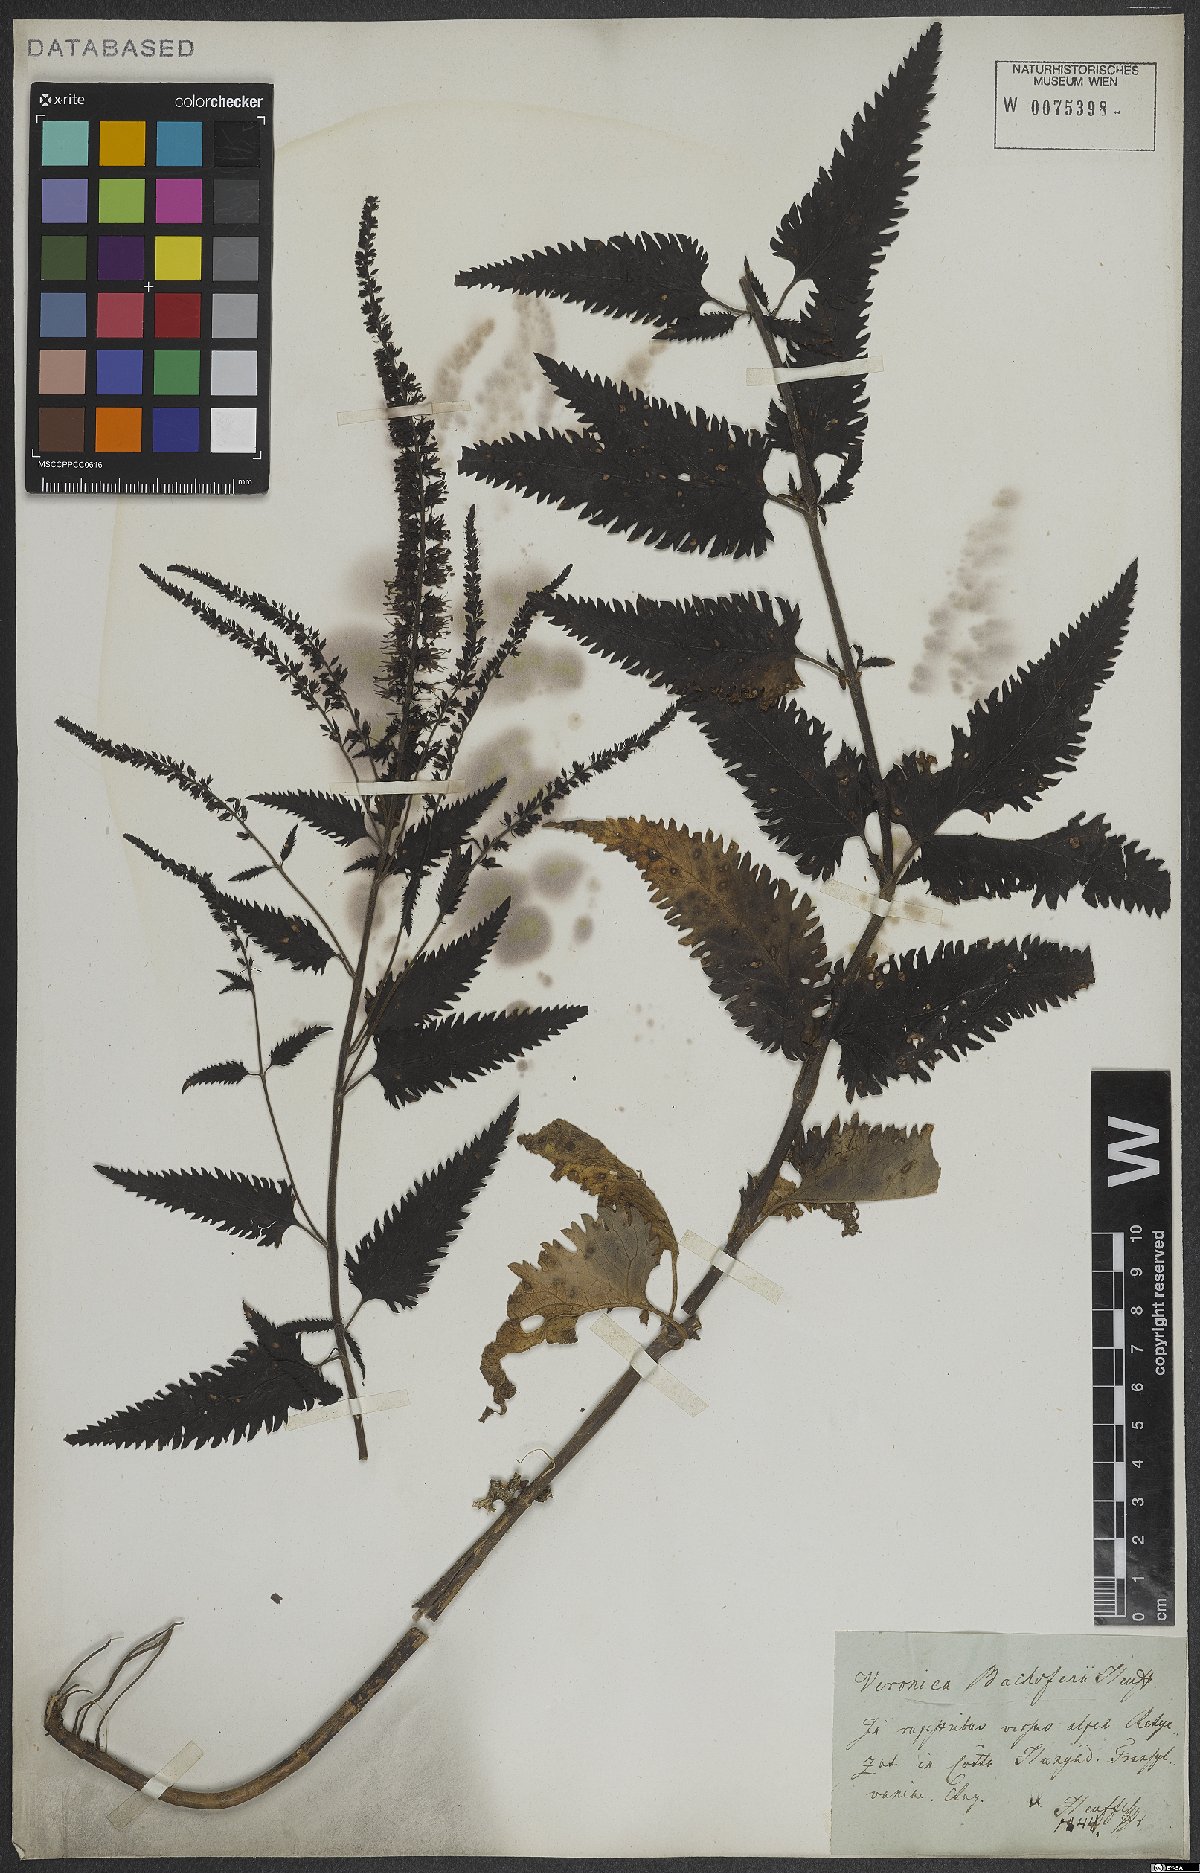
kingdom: Plantae
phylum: Tracheophyta
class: Magnoliopsida
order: Lamiales
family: Plantaginaceae
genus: Veronica
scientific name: Veronica bachofenii
